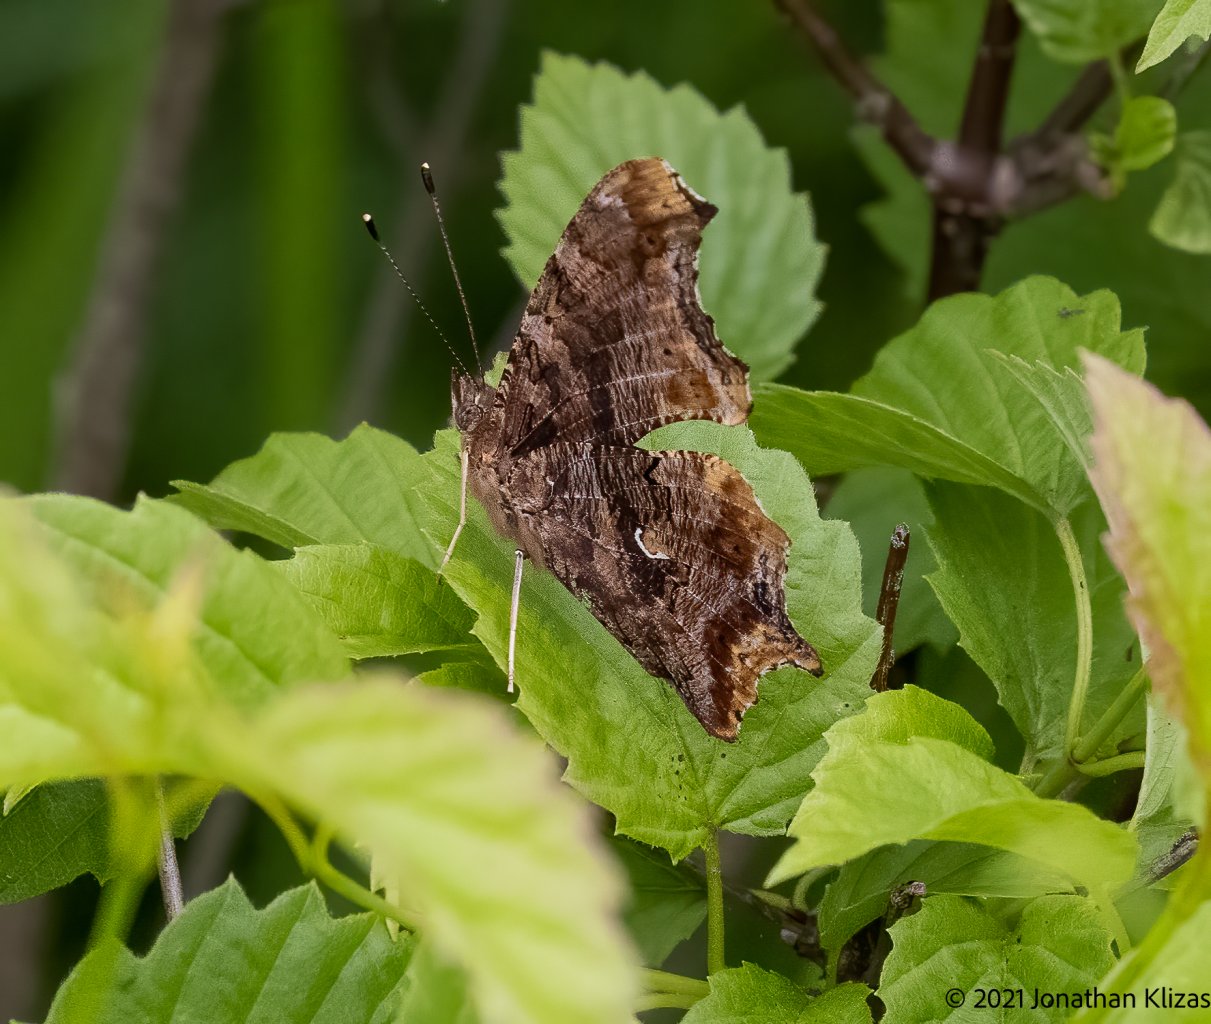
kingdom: Animalia
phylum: Arthropoda
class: Insecta
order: Lepidoptera
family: Nymphalidae
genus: Polygonia
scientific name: Polygonia comma
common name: Eastern Comma
